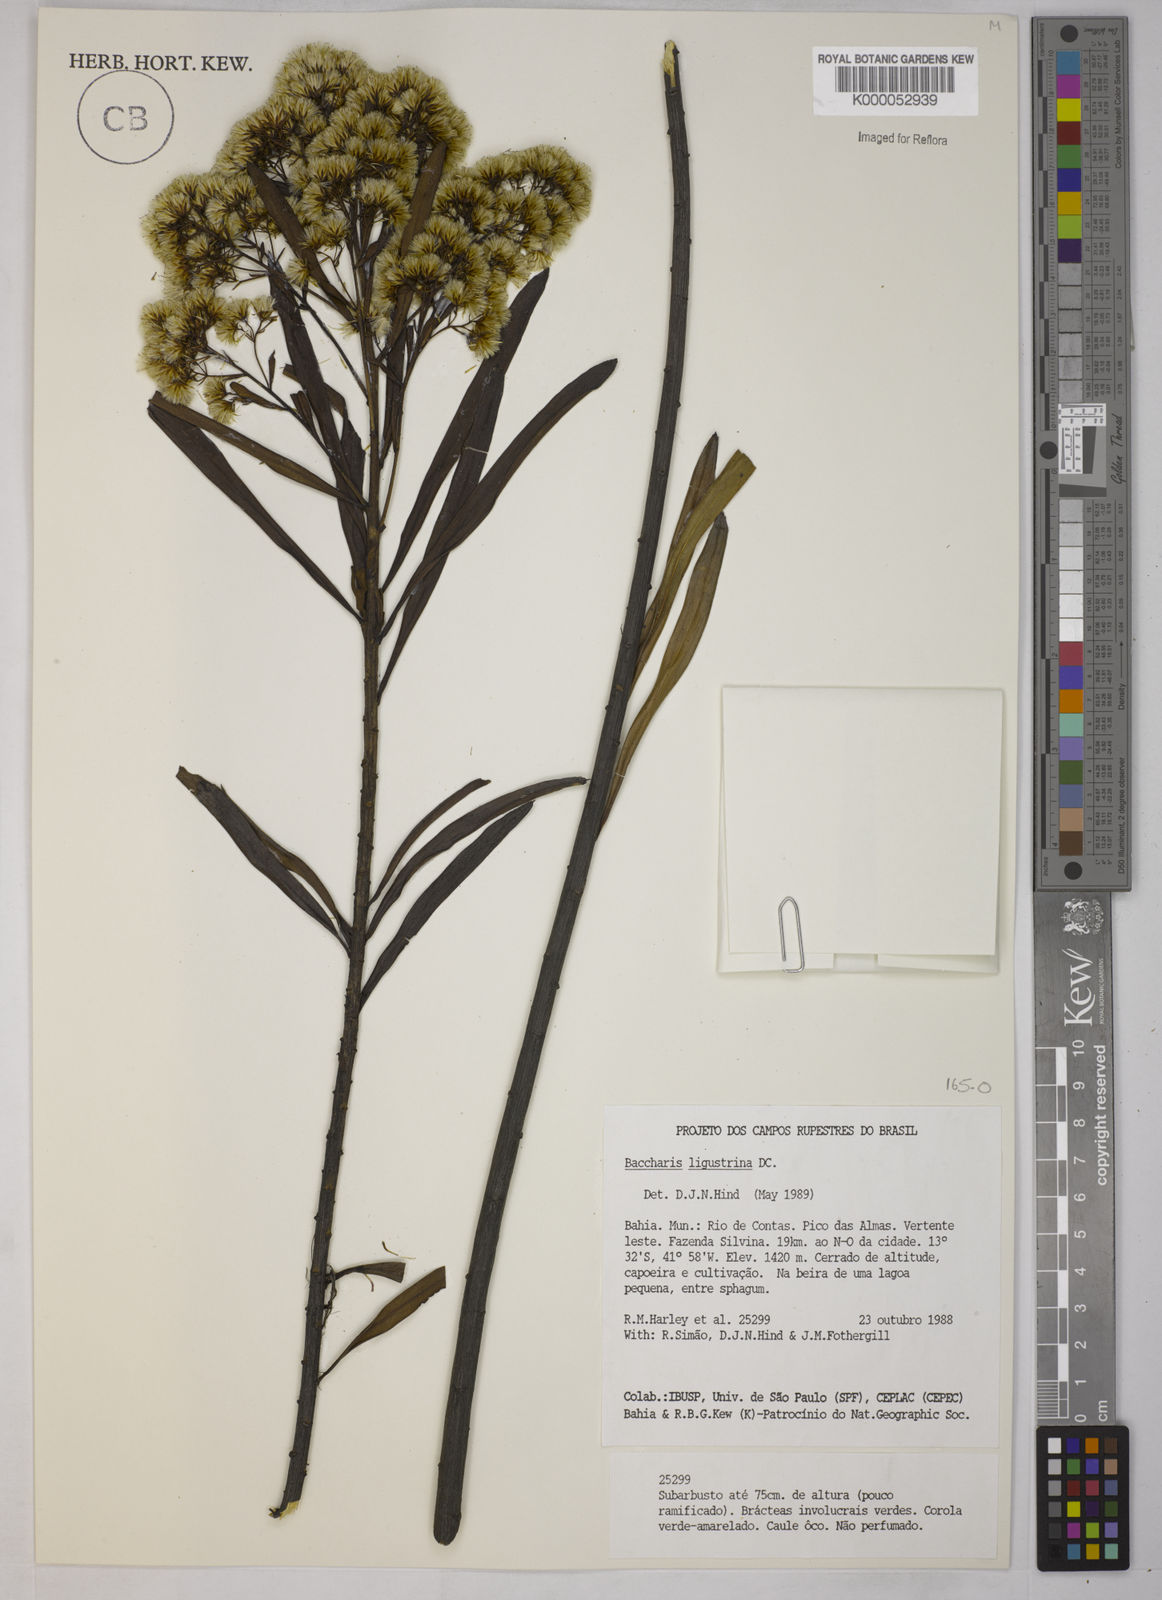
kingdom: Plantae
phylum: Tracheophyta
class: Magnoliopsida
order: Asterales
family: Asteraceae
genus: Baccharis
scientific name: Baccharis ligustrina
